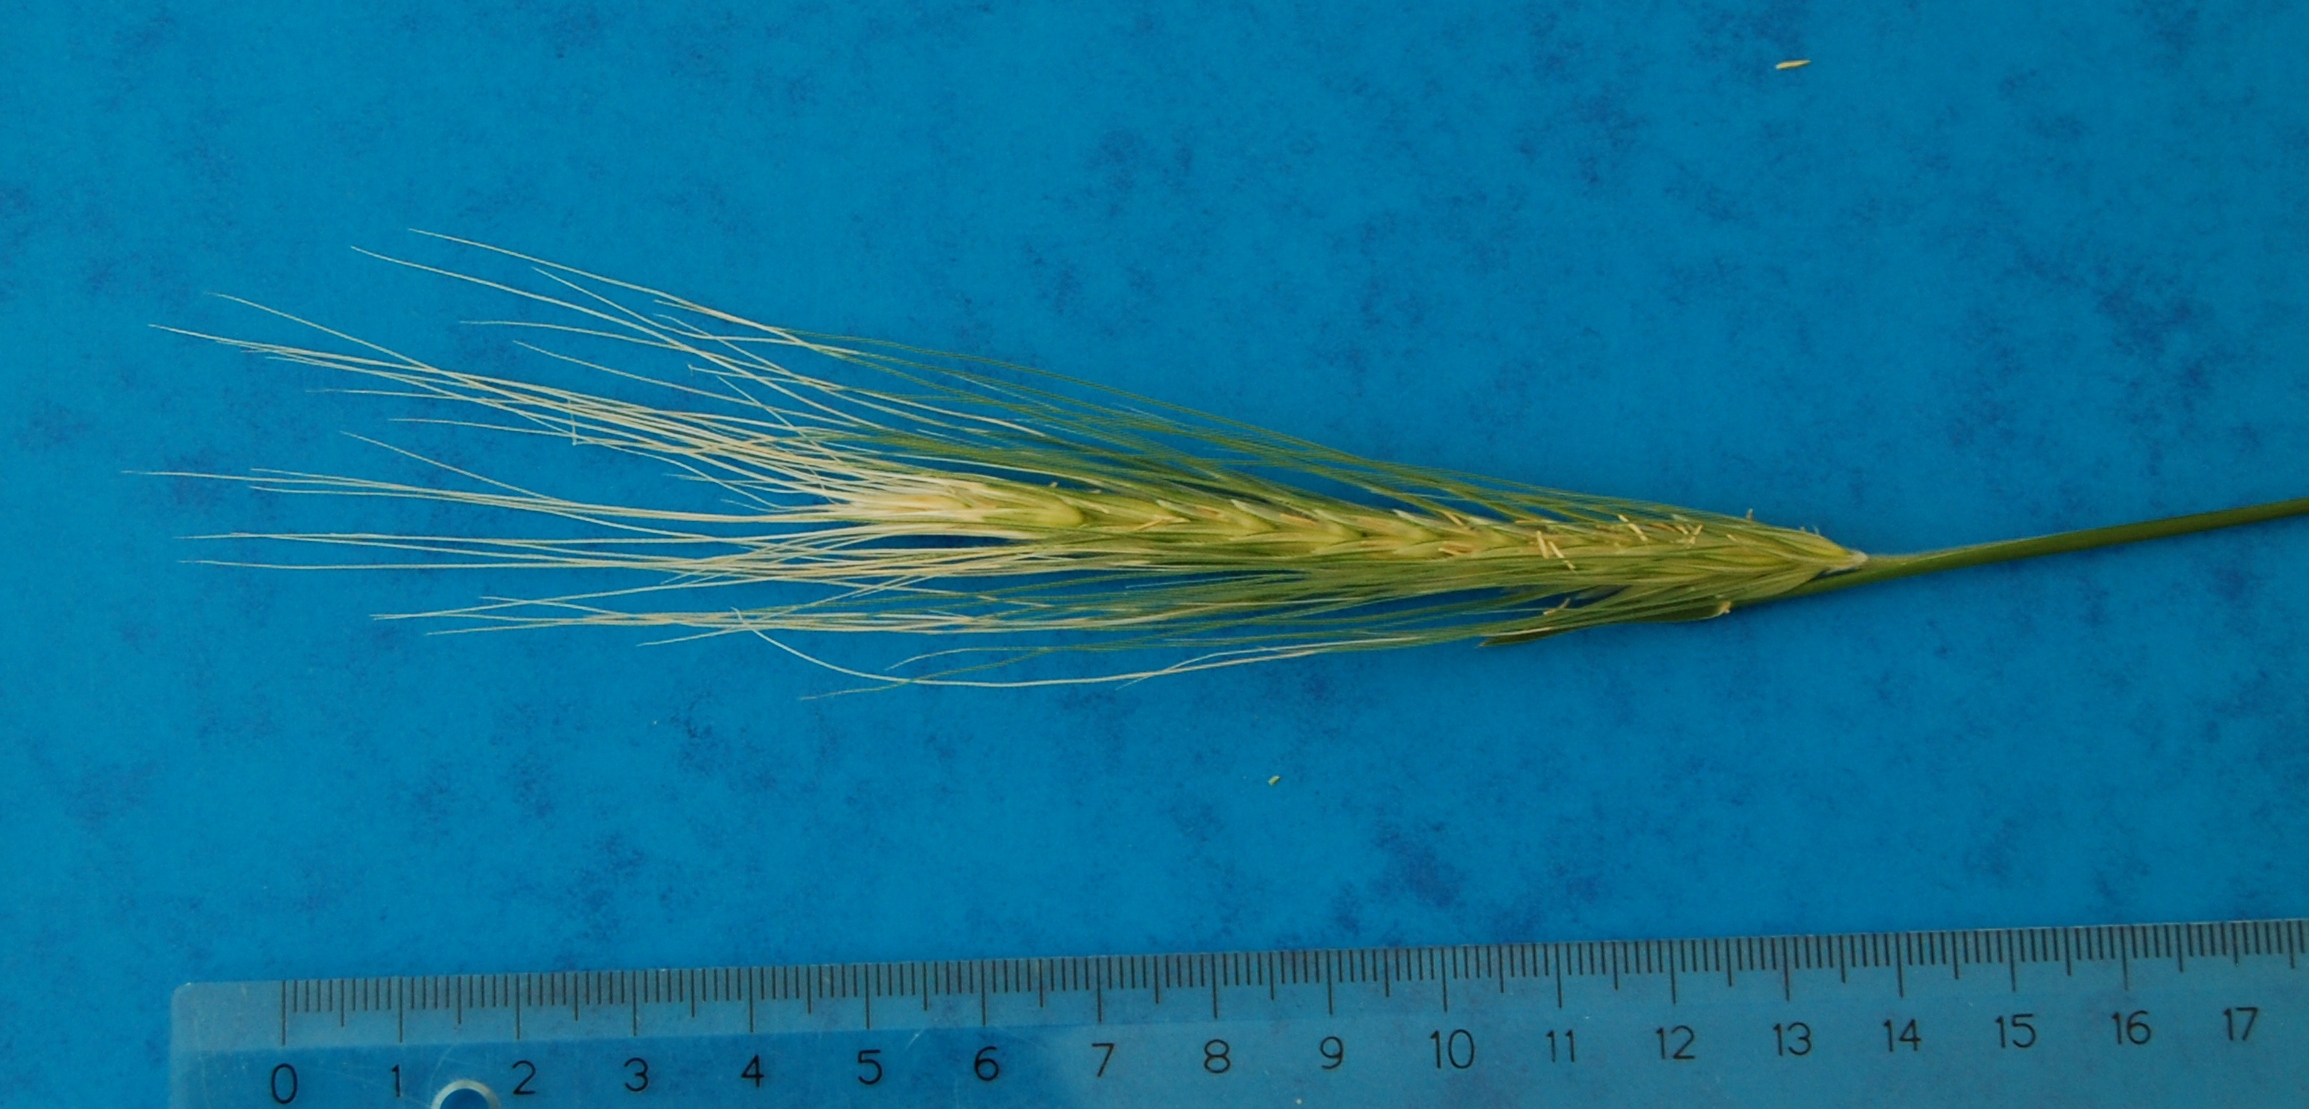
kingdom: Plantae
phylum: Tracheophyta
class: Liliopsida
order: Poales
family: Poaceae
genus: Secale
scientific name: Secale sylvestre
